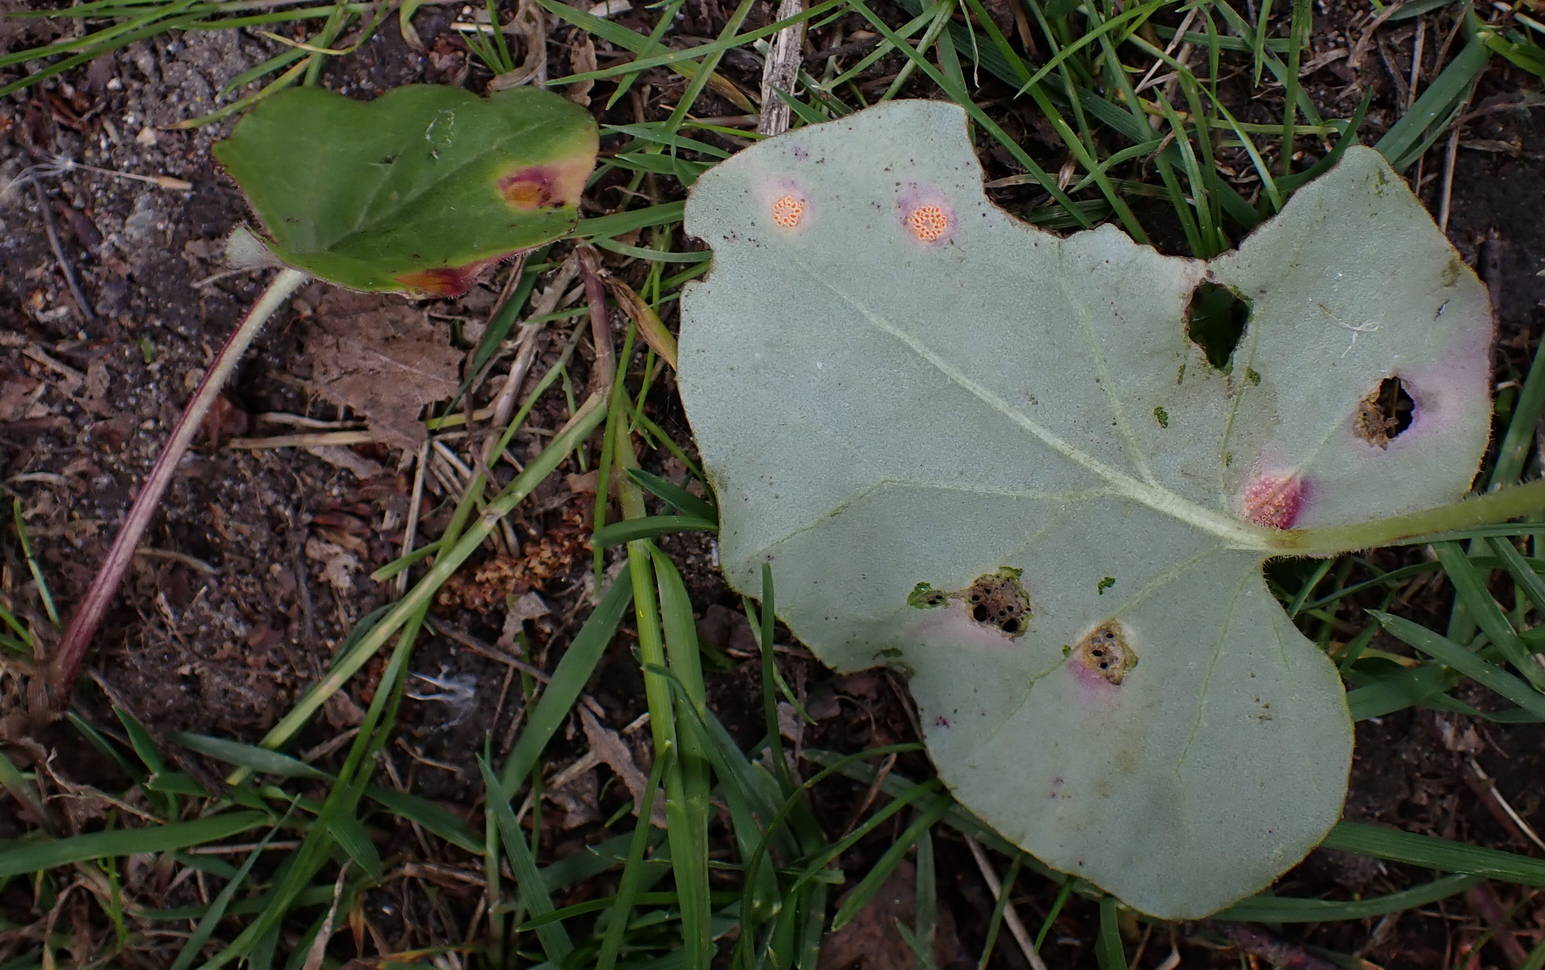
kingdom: Fungi
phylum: Basidiomycota
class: Pucciniomycetes
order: Pucciniales
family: Pucciniaceae
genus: Puccinia
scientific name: Puccinia poarum
